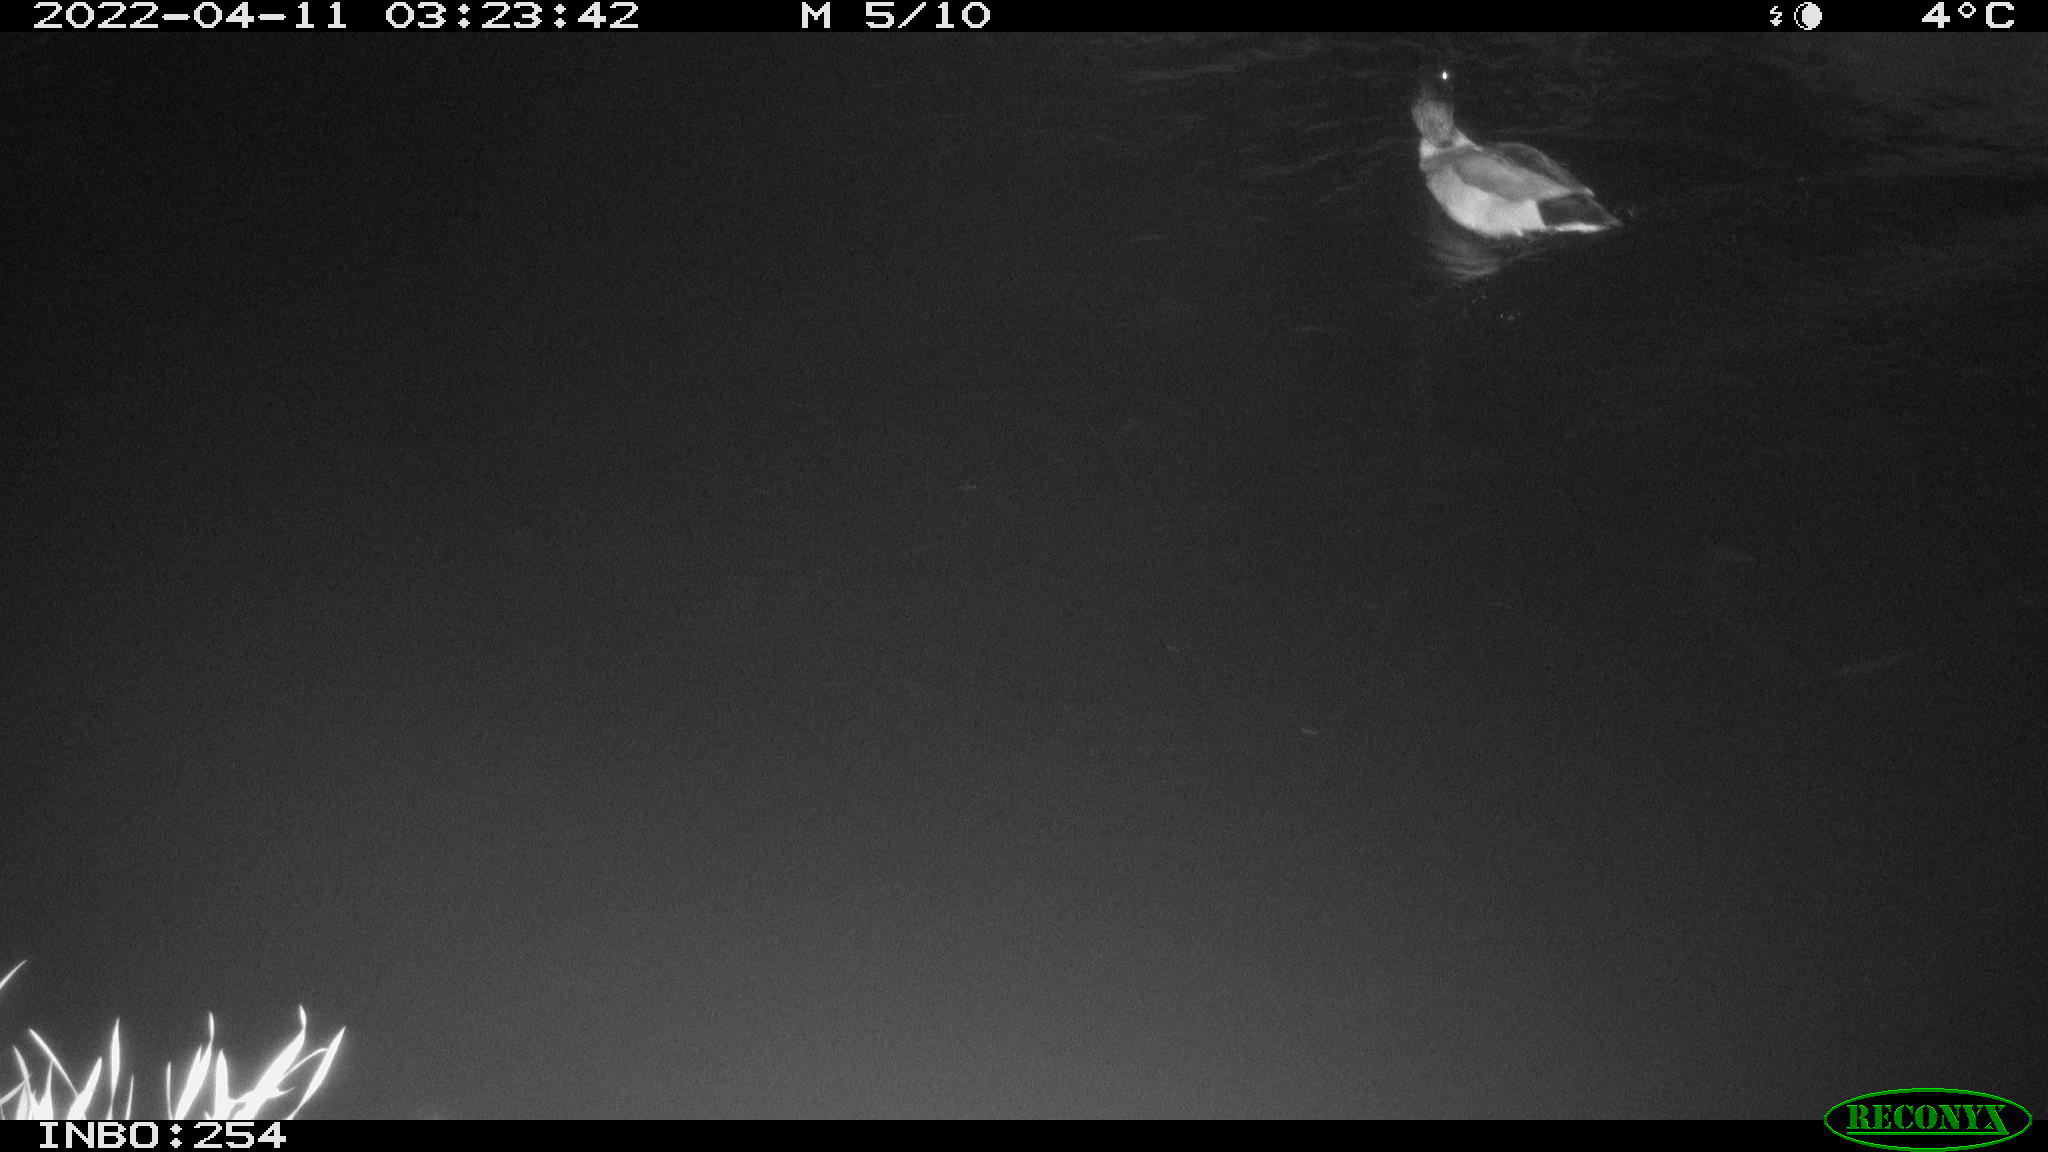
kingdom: Animalia
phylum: Chordata
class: Aves
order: Anseriformes
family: Anatidae
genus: Anas
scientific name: Anas
